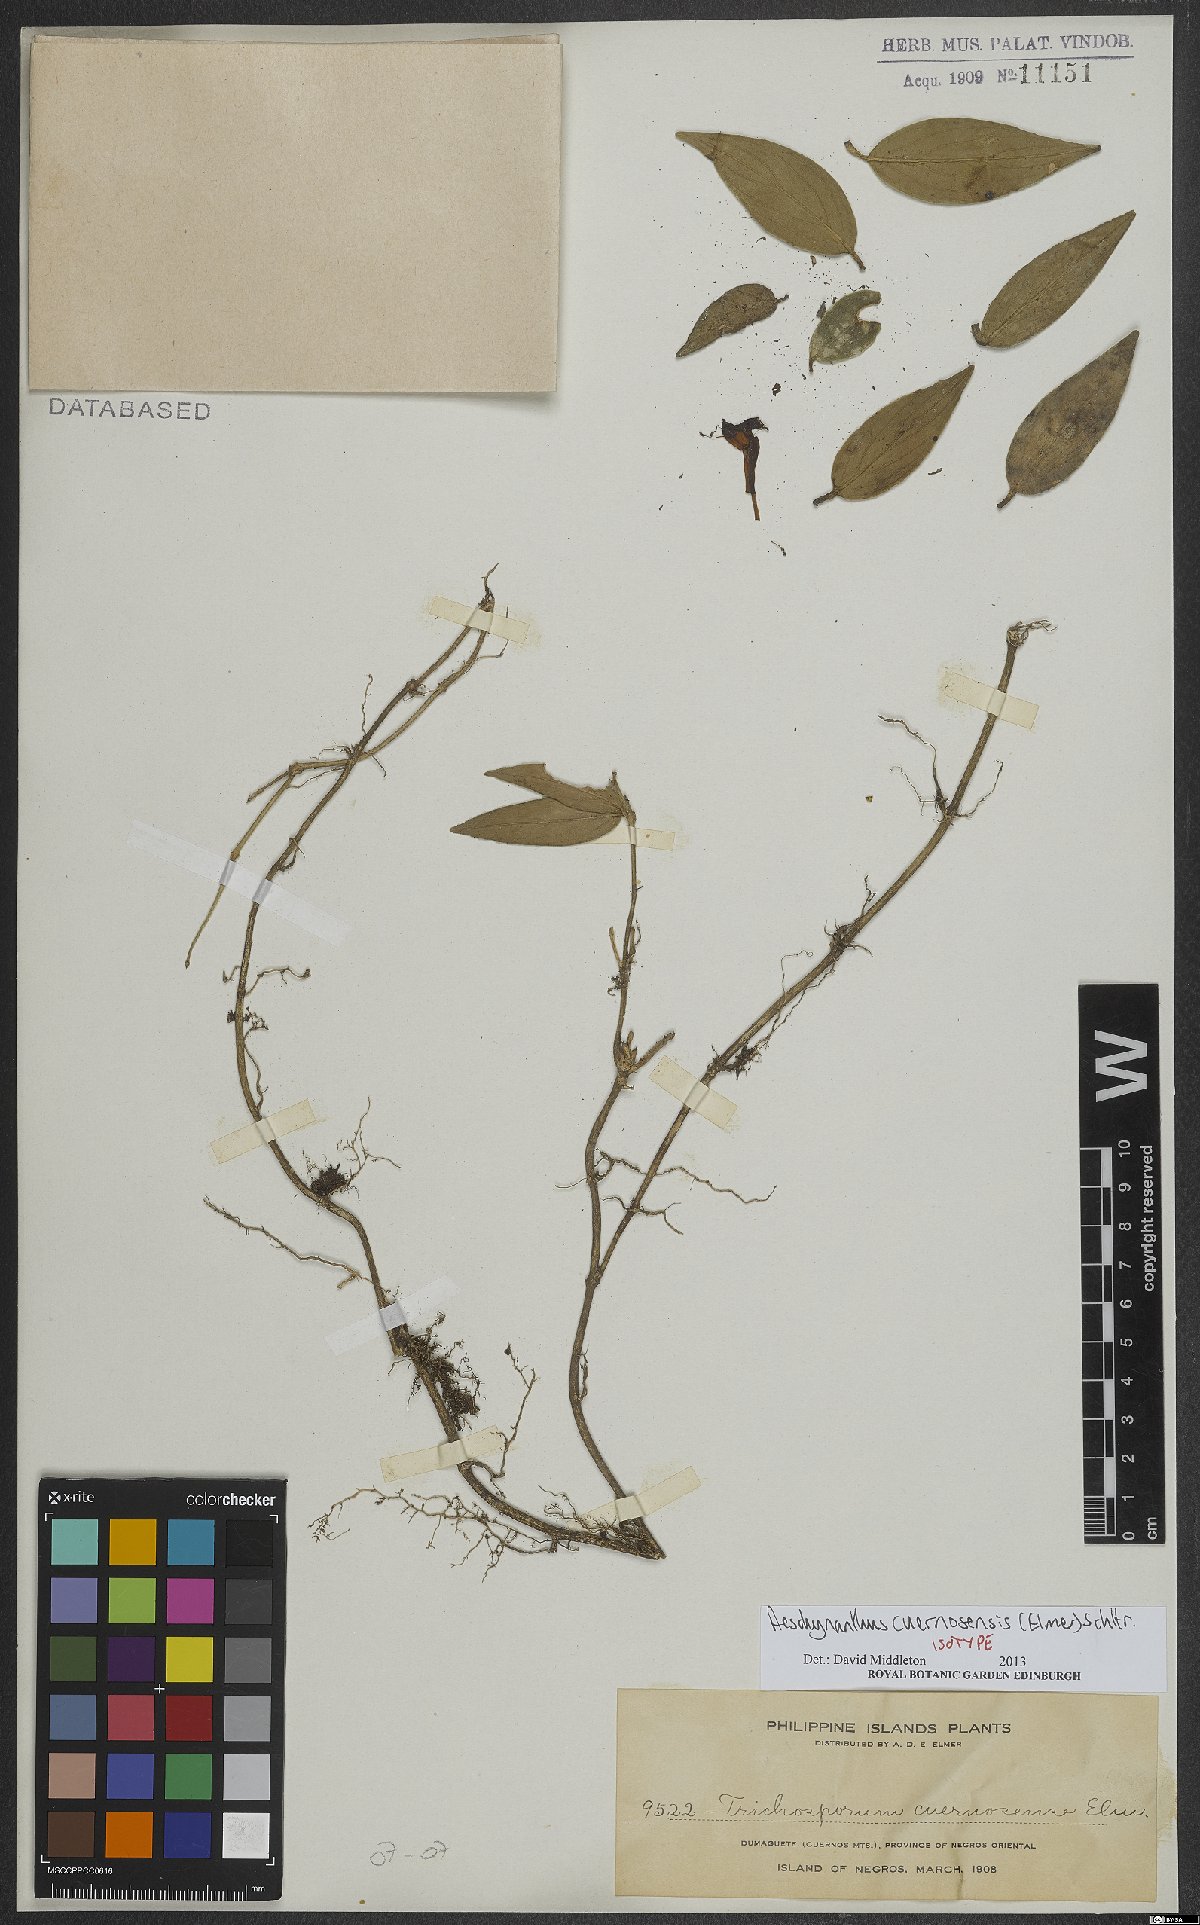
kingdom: Plantae
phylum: Tracheophyta
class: Magnoliopsida
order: Lamiales
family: Gesneriaceae
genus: Aeschynanthus
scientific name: Aeschynanthus cuernosensis
